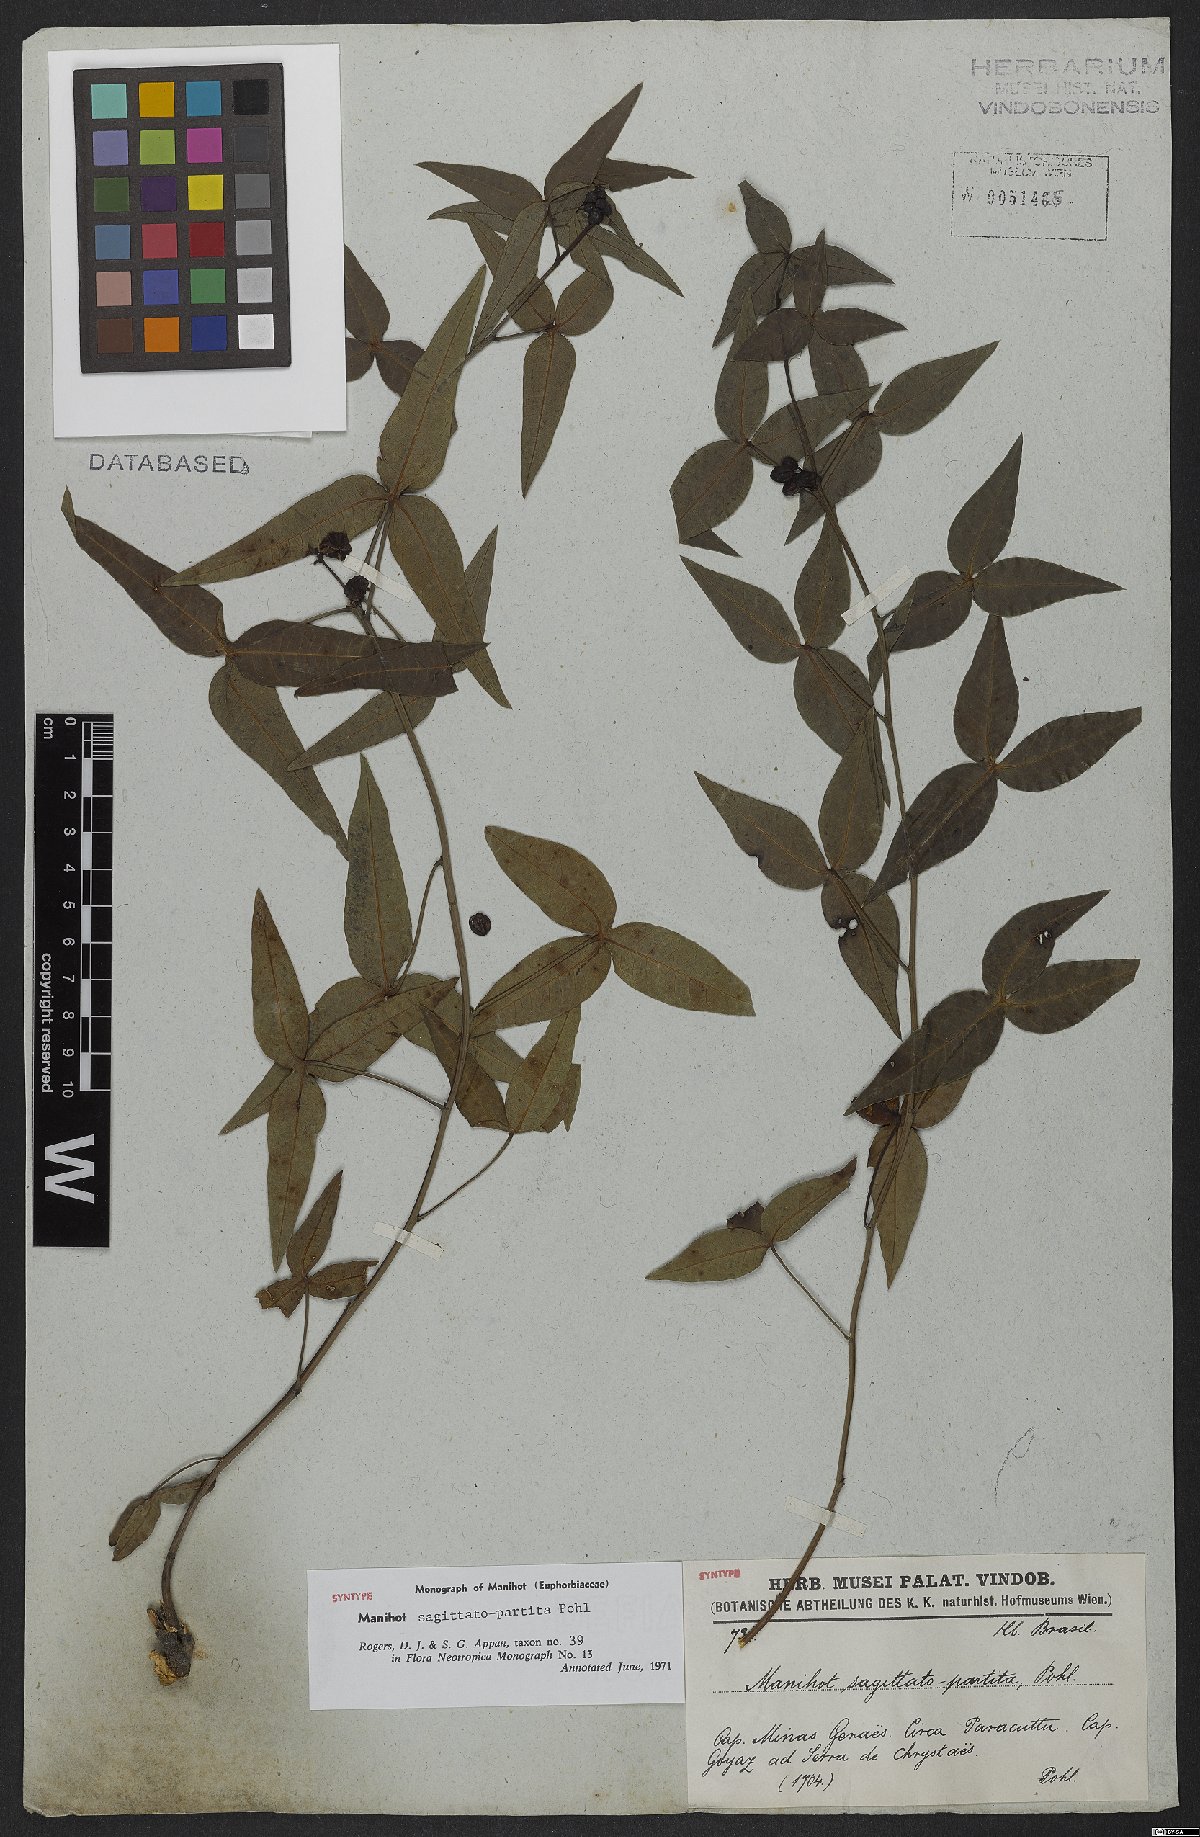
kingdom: Plantae
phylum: Tracheophyta
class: Magnoliopsida
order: Malpighiales
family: Euphorbiaceae
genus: Manihot
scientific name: Manihot sagittatopartita
